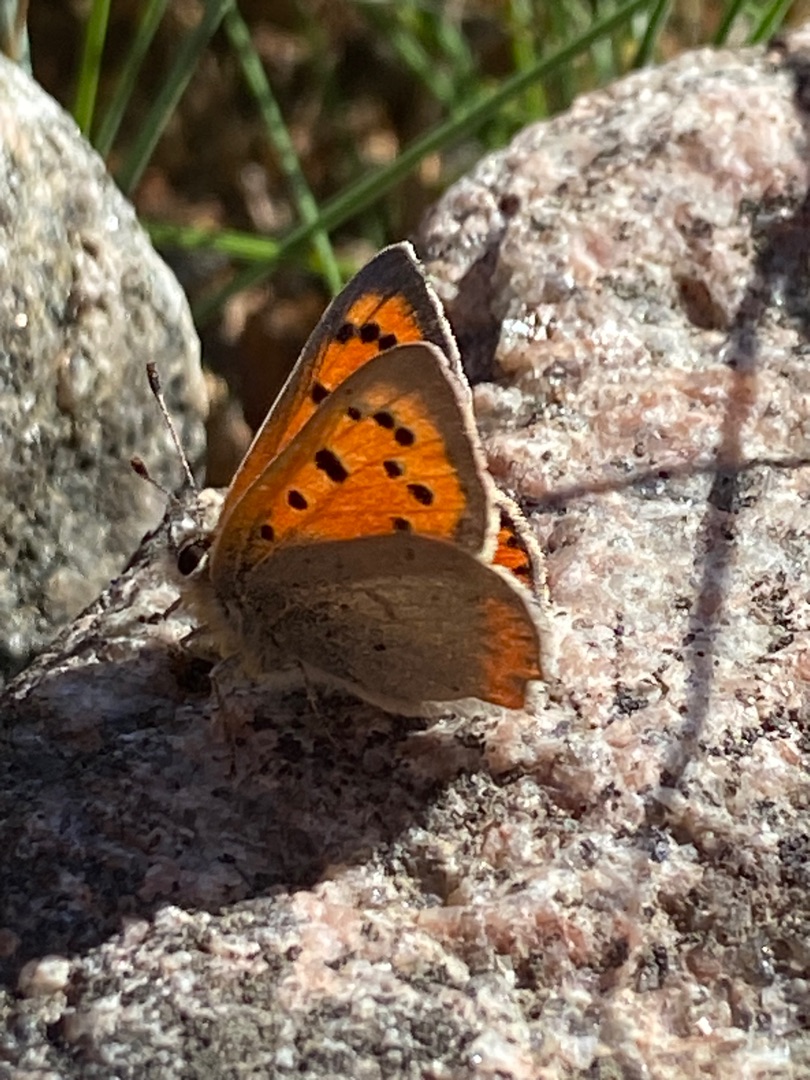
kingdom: Animalia
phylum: Arthropoda
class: Insecta
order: Lepidoptera
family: Lycaenidae
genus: Lycaena
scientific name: Lycaena phlaeas
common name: Lille ildfugl
